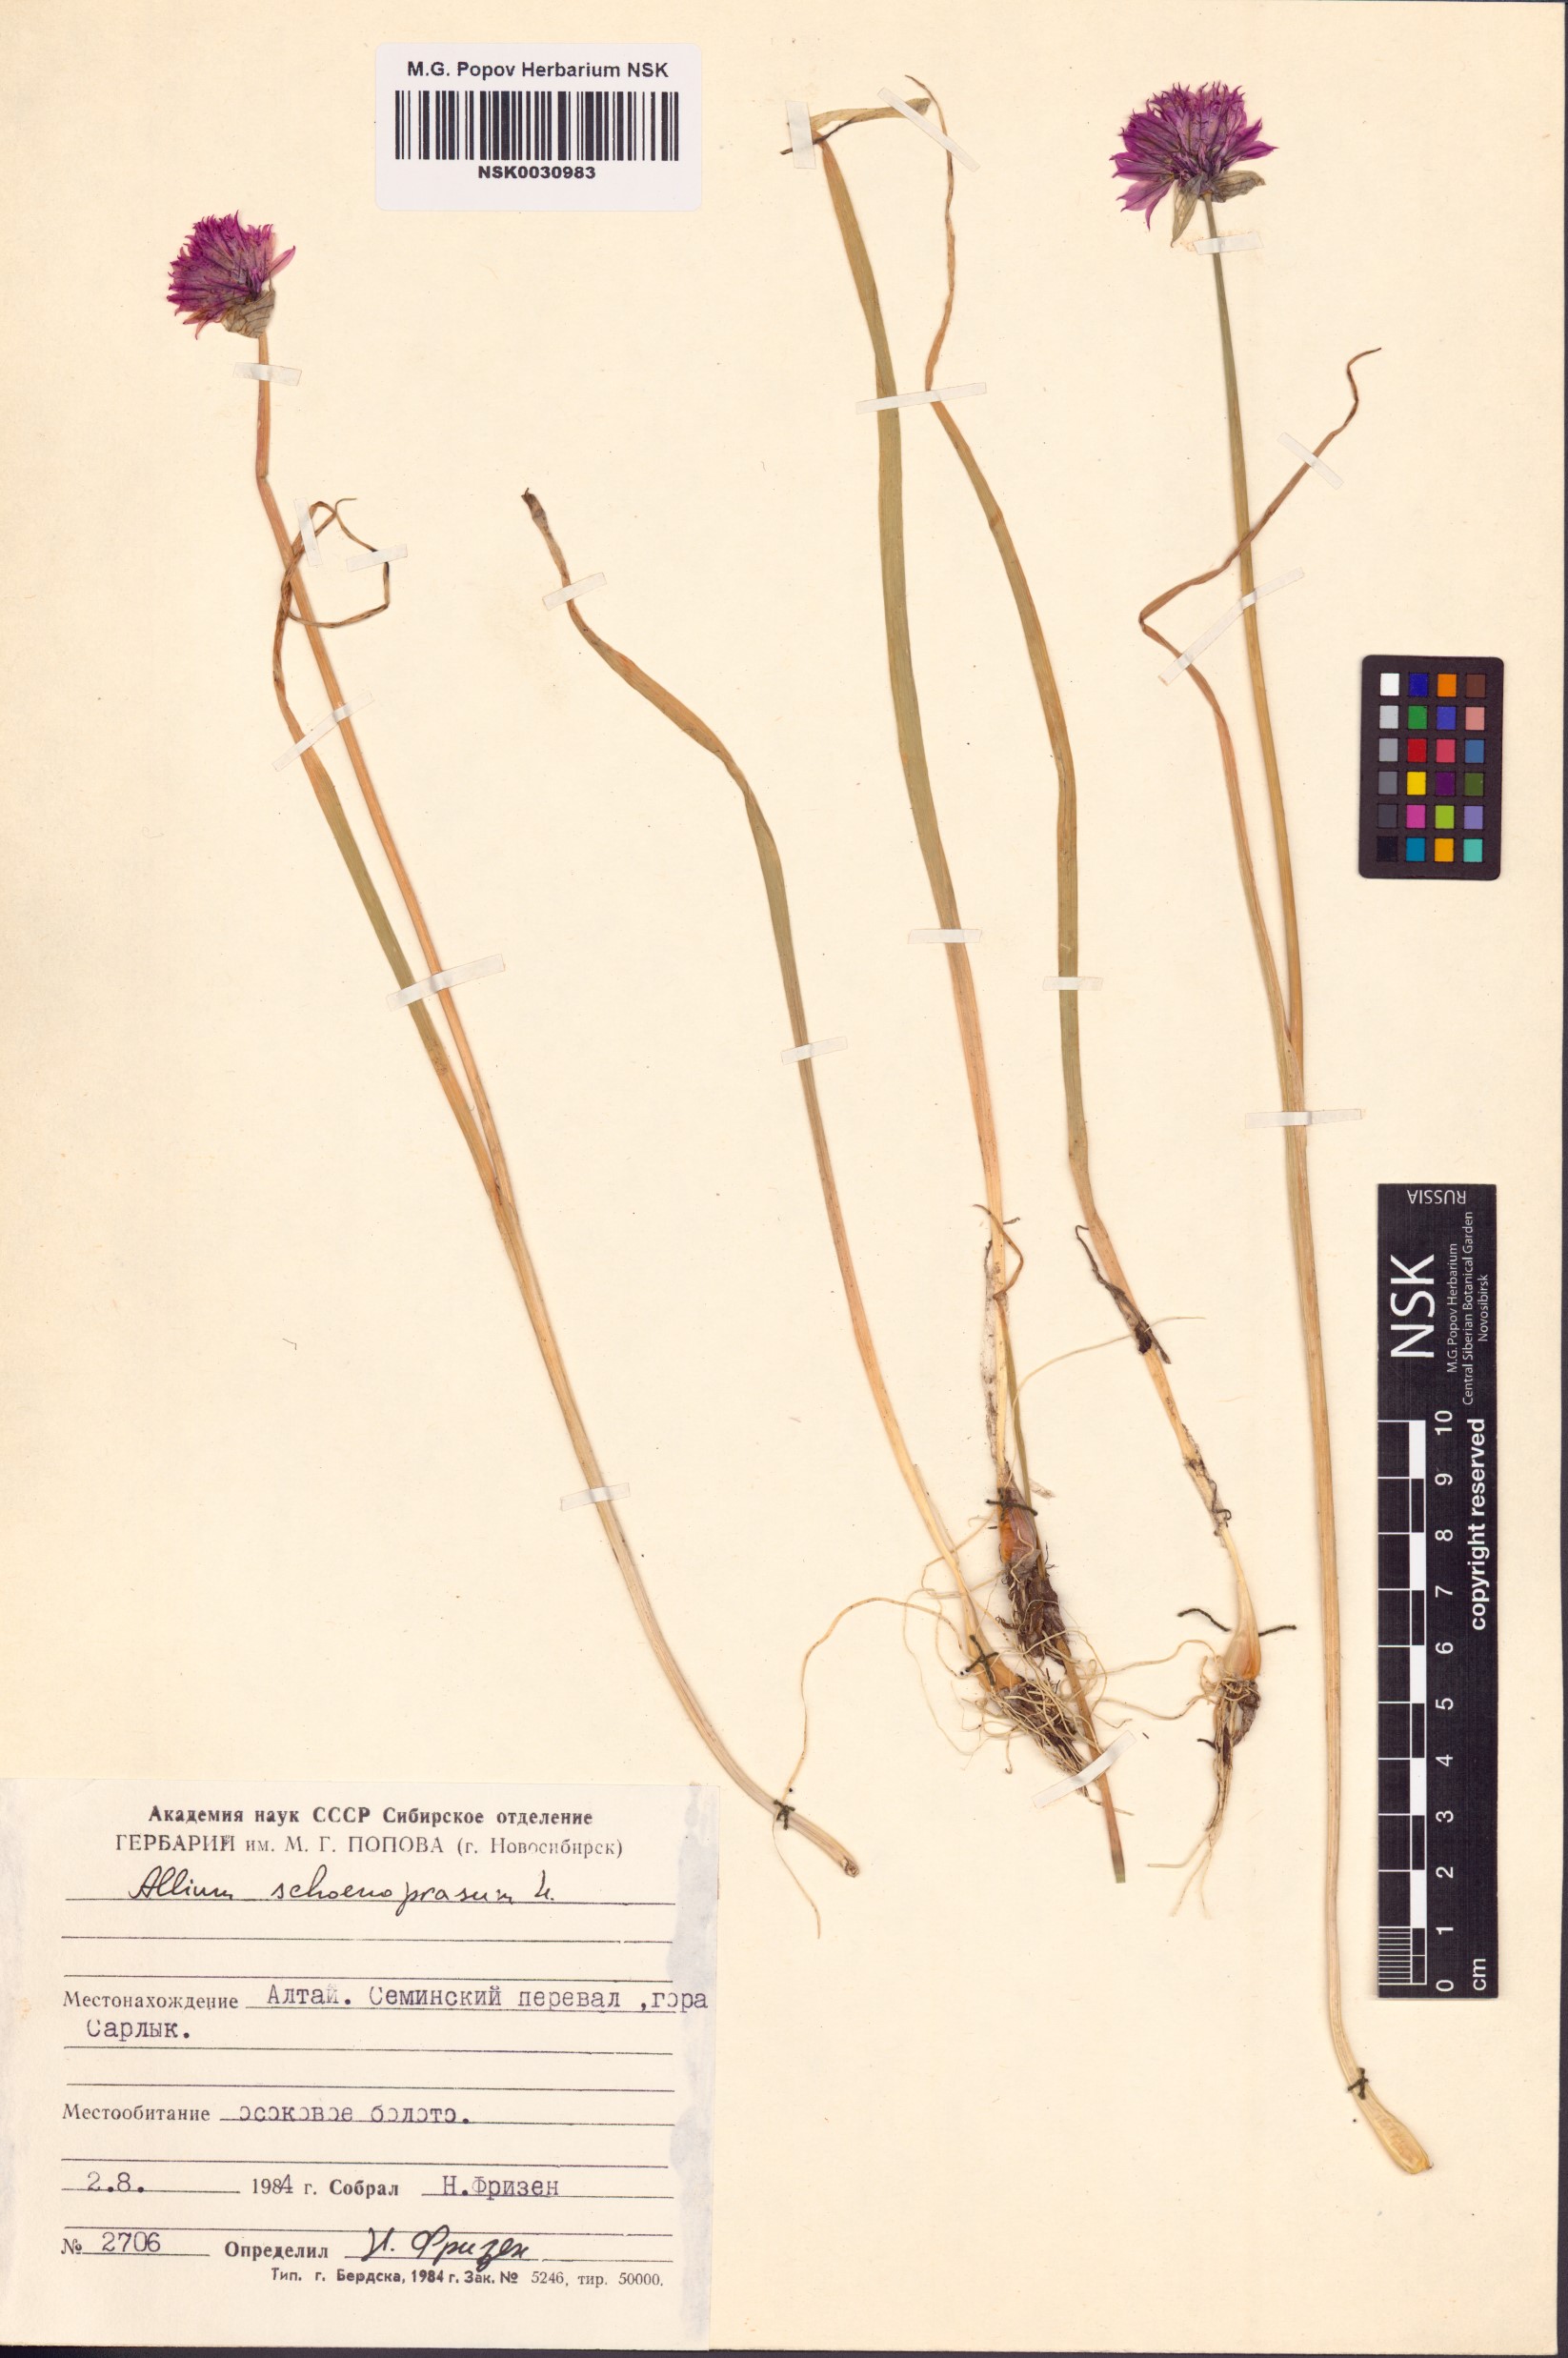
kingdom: Plantae
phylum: Tracheophyta
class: Liliopsida
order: Asparagales
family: Amaryllidaceae
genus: Allium
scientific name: Allium schoenoprasum
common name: Chives
